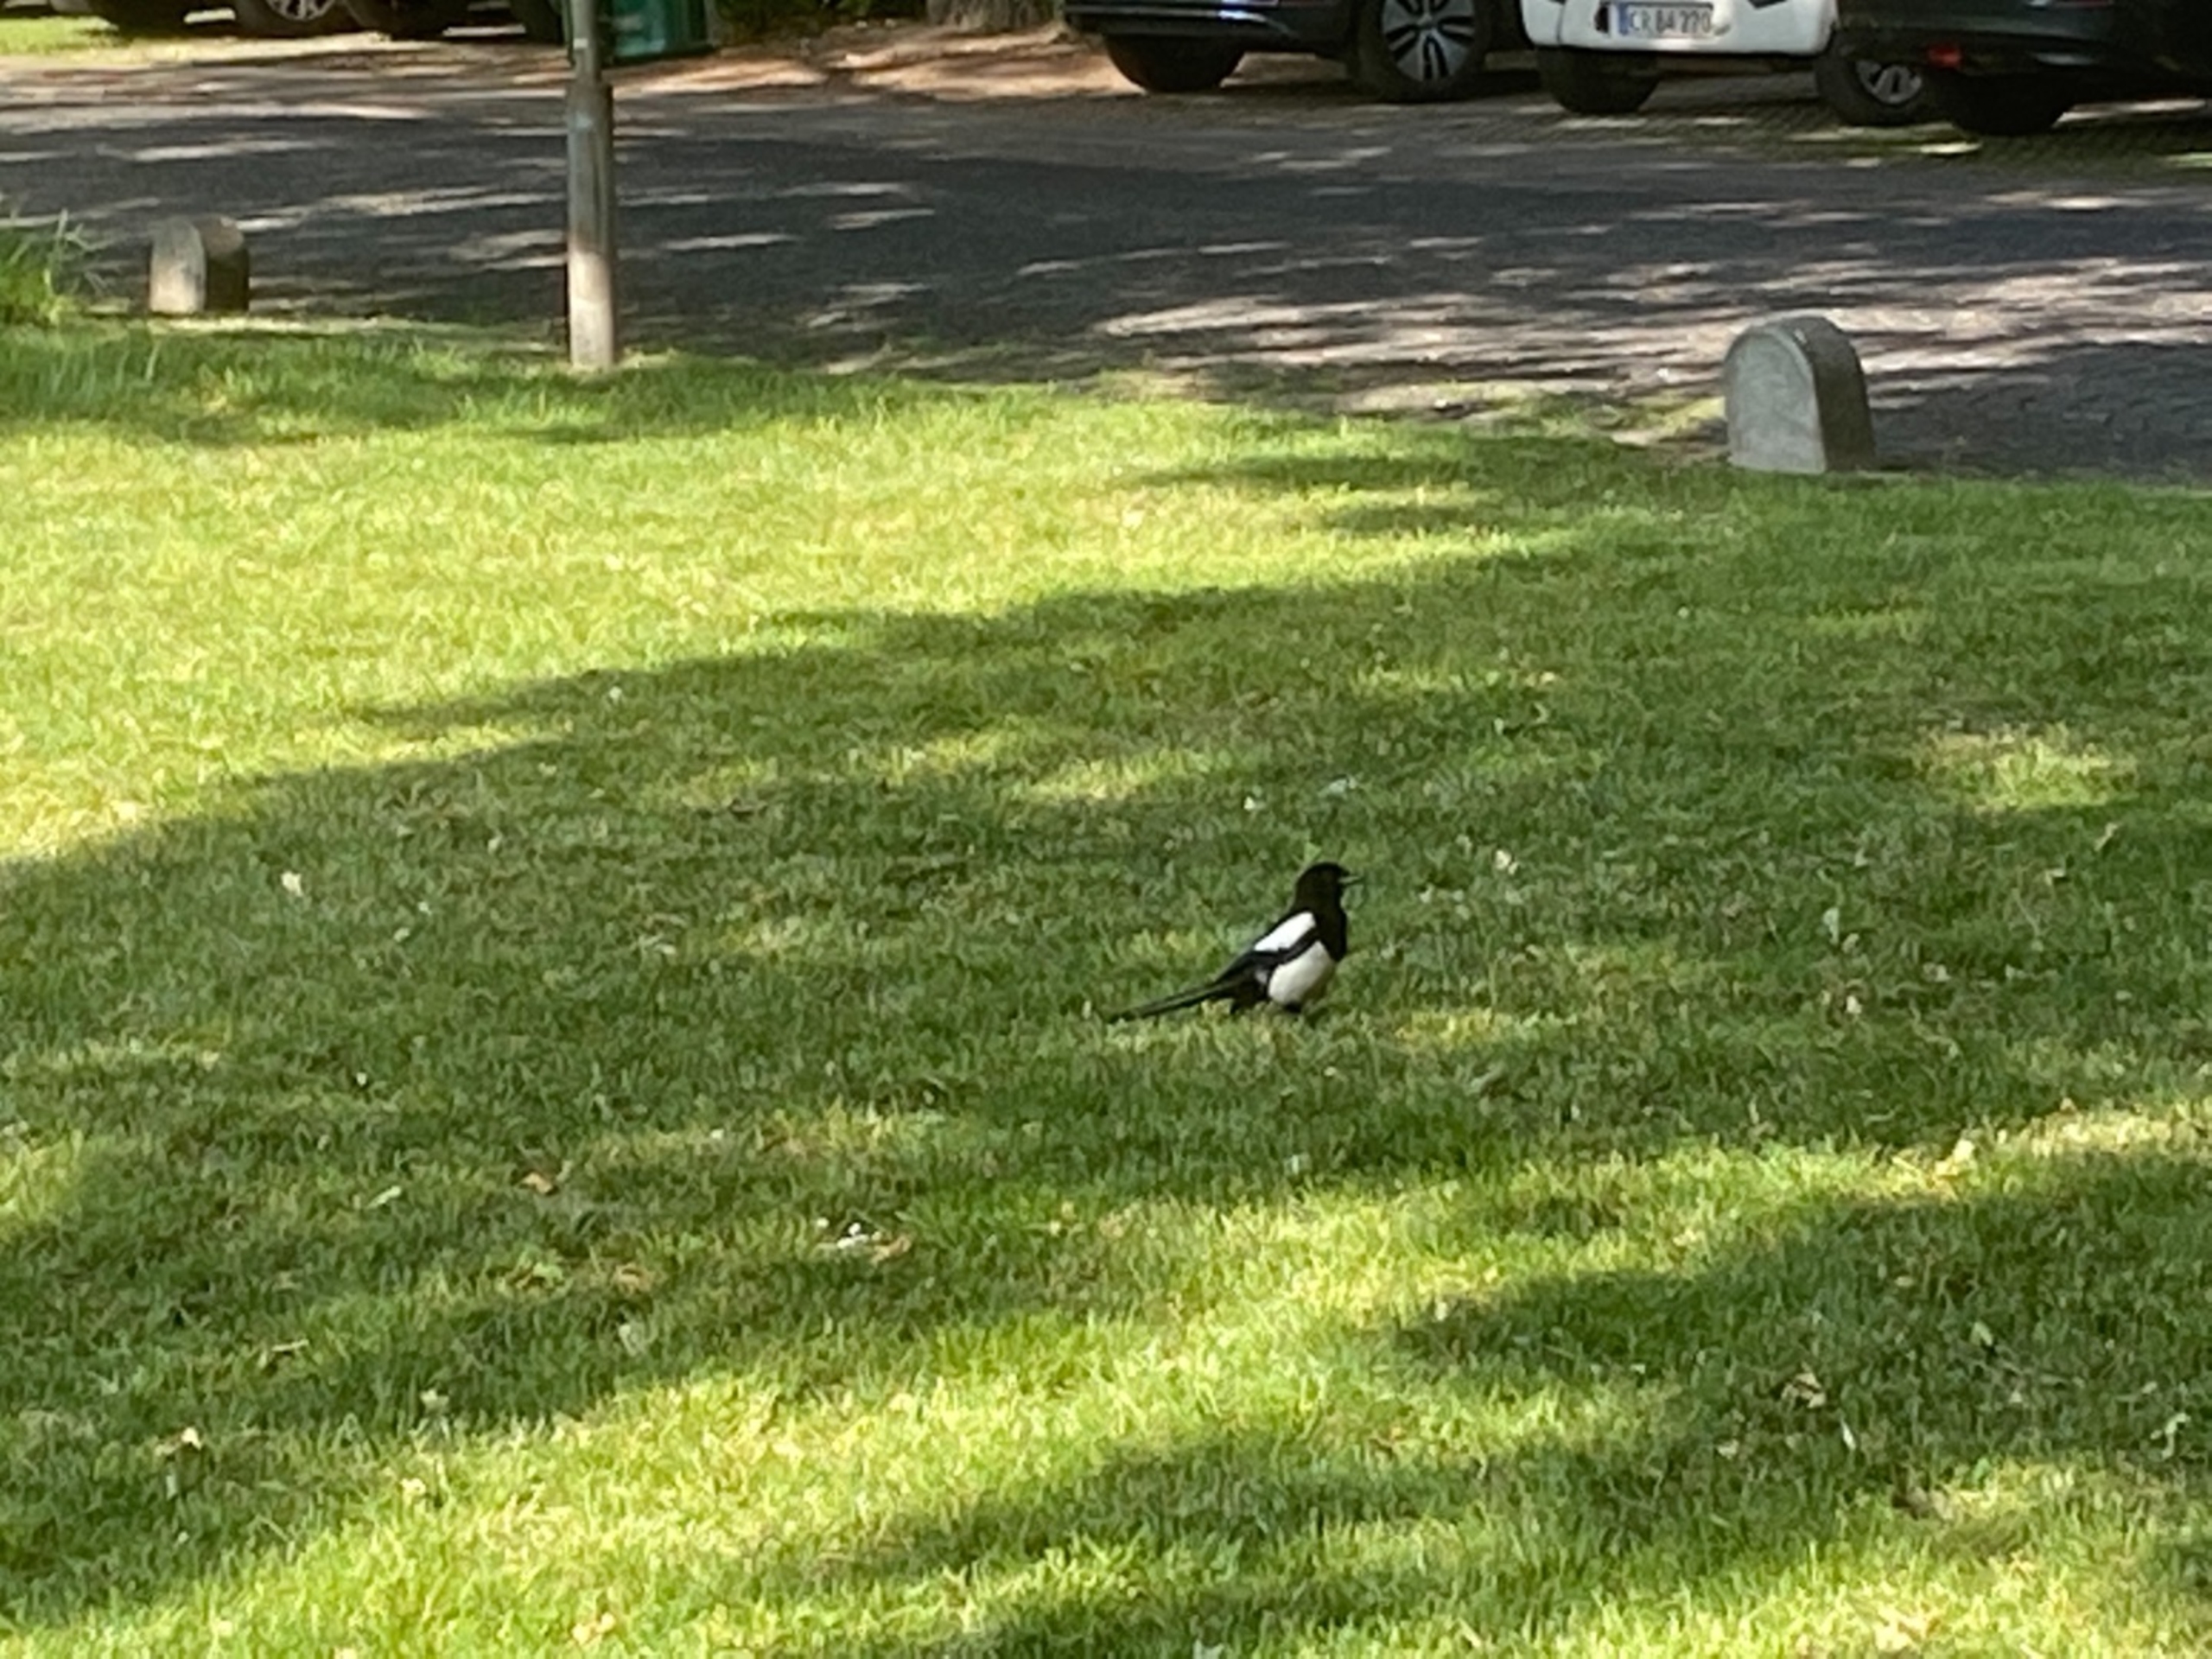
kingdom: Animalia
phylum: Chordata
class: Aves
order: Passeriformes
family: Corvidae
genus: Pica
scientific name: Pica pica
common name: Husskade
